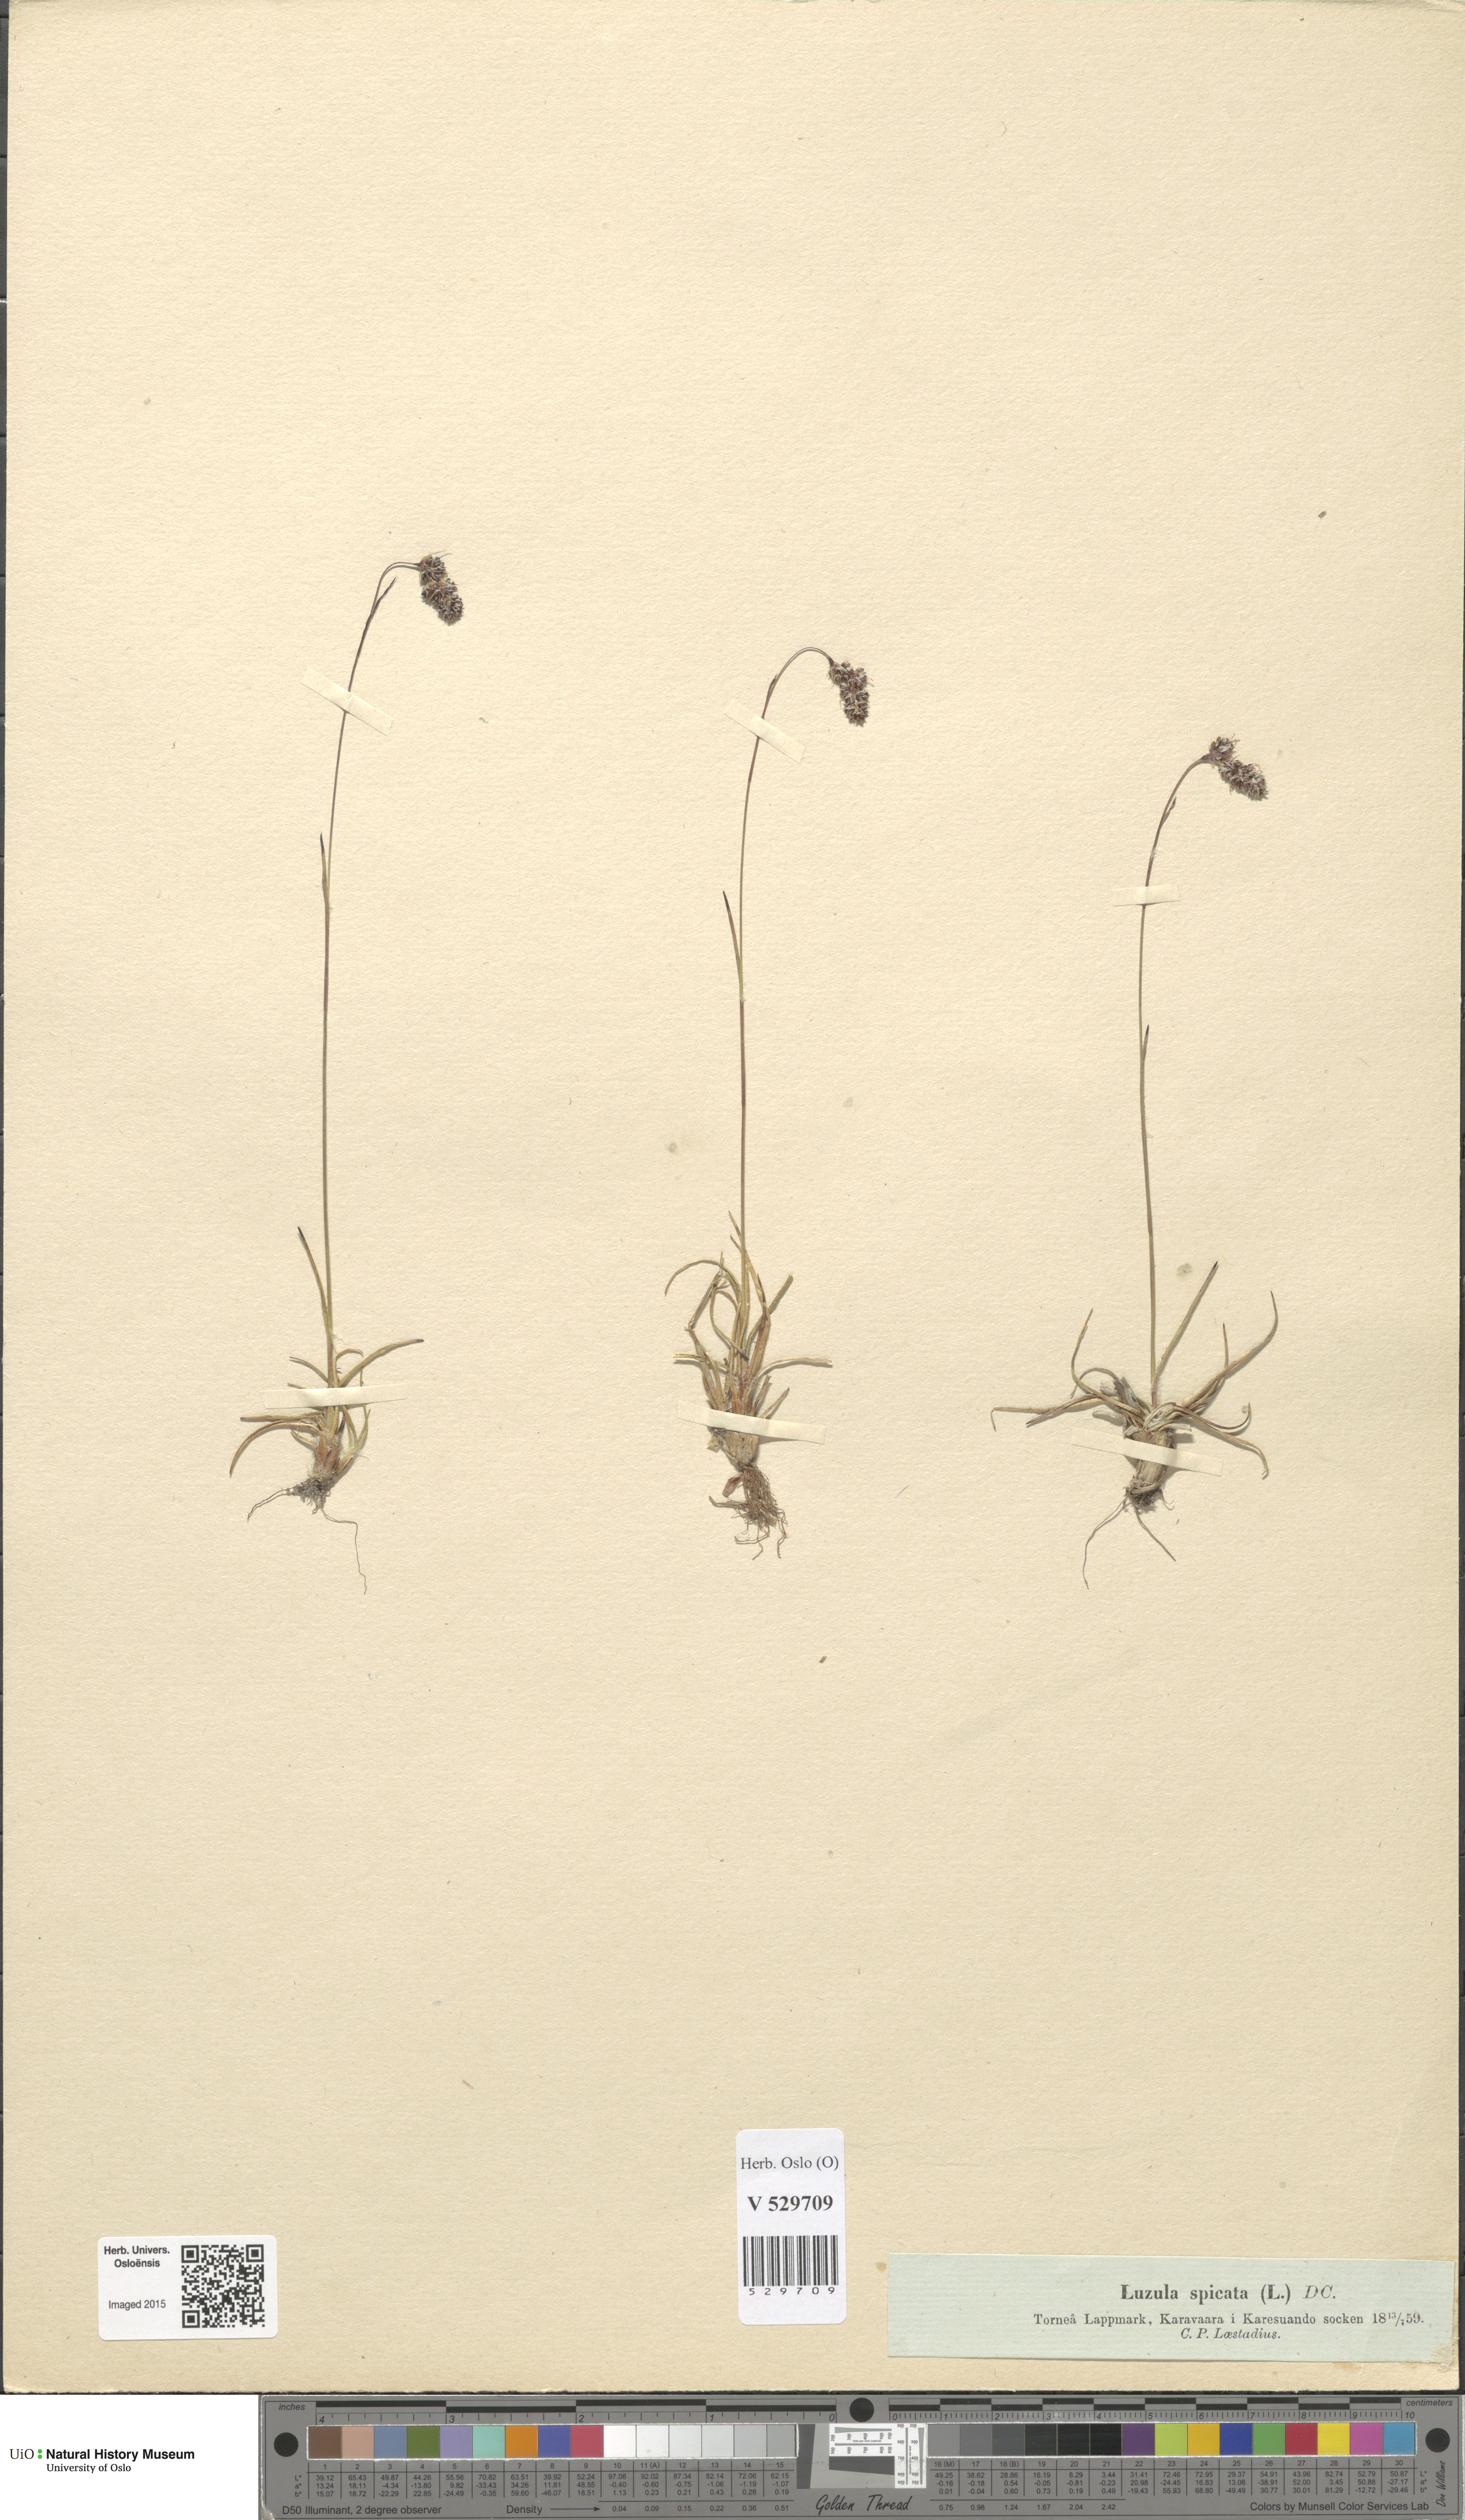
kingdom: Plantae
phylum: Tracheophyta
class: Liliopsida
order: Poales
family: Juncaceae
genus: Luzula
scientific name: Luzula spicata
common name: Spiked wood-rush
